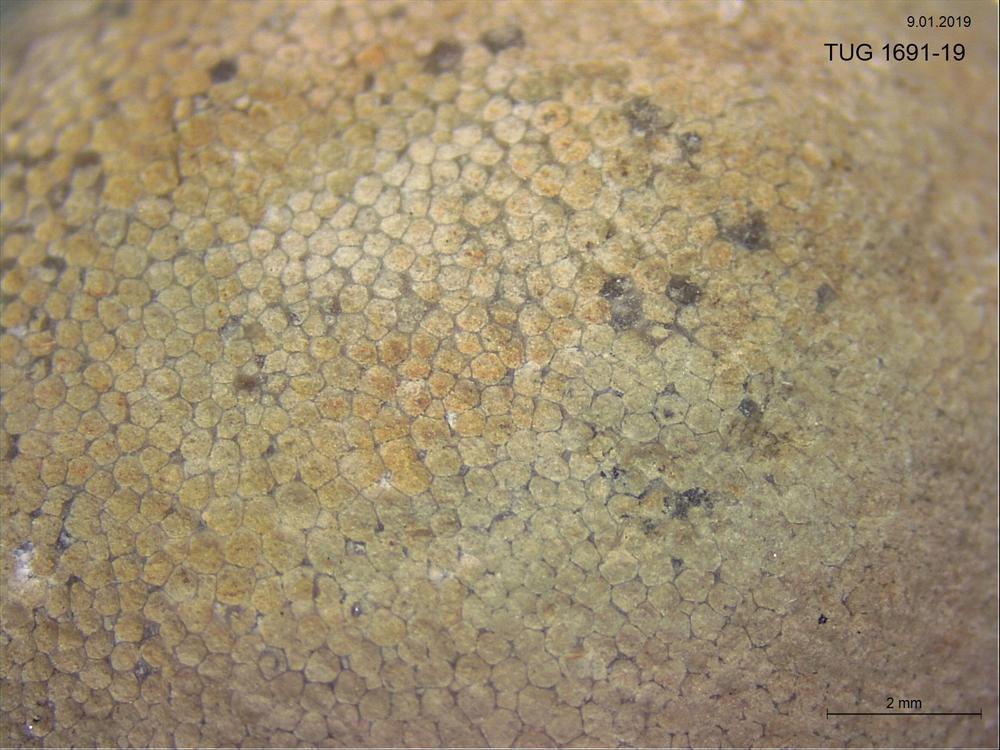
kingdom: Animalia
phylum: Bryozoa
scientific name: Bryozoa
